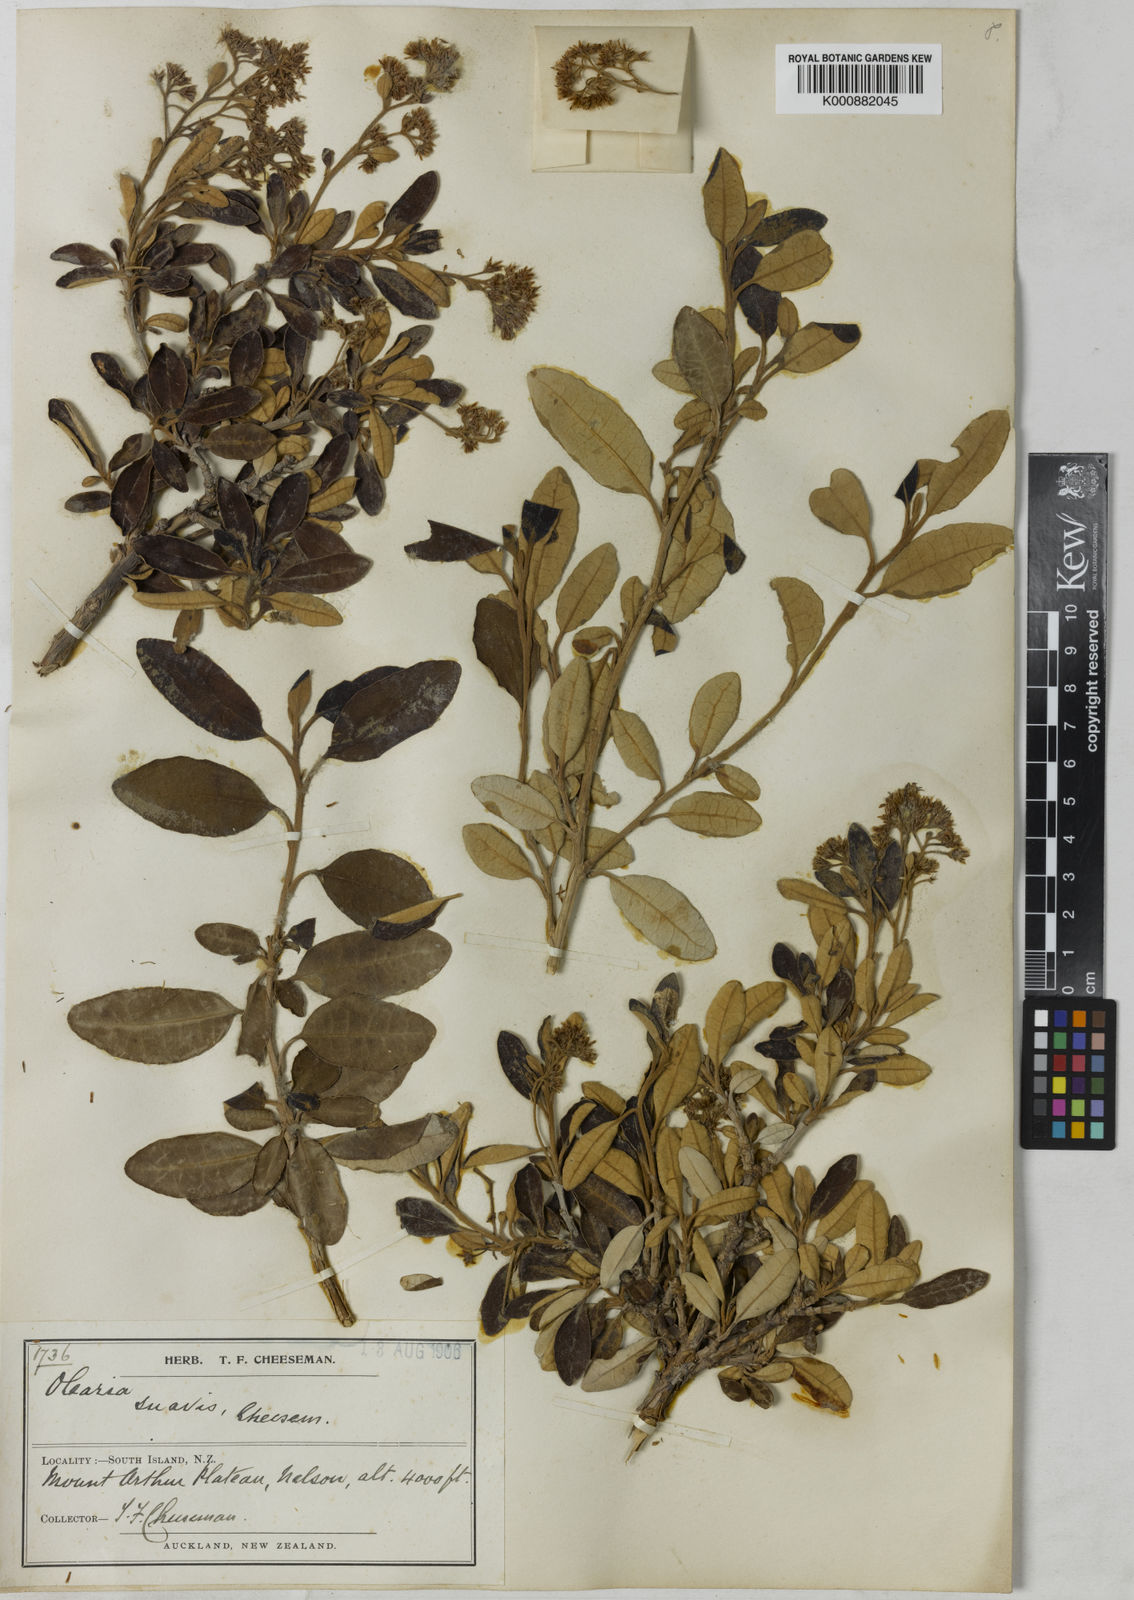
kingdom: Plantae
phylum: Tracheophyta
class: Magnoliopsida
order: Asterales
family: Asteraceae
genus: Olearia
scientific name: Olearia suavis
